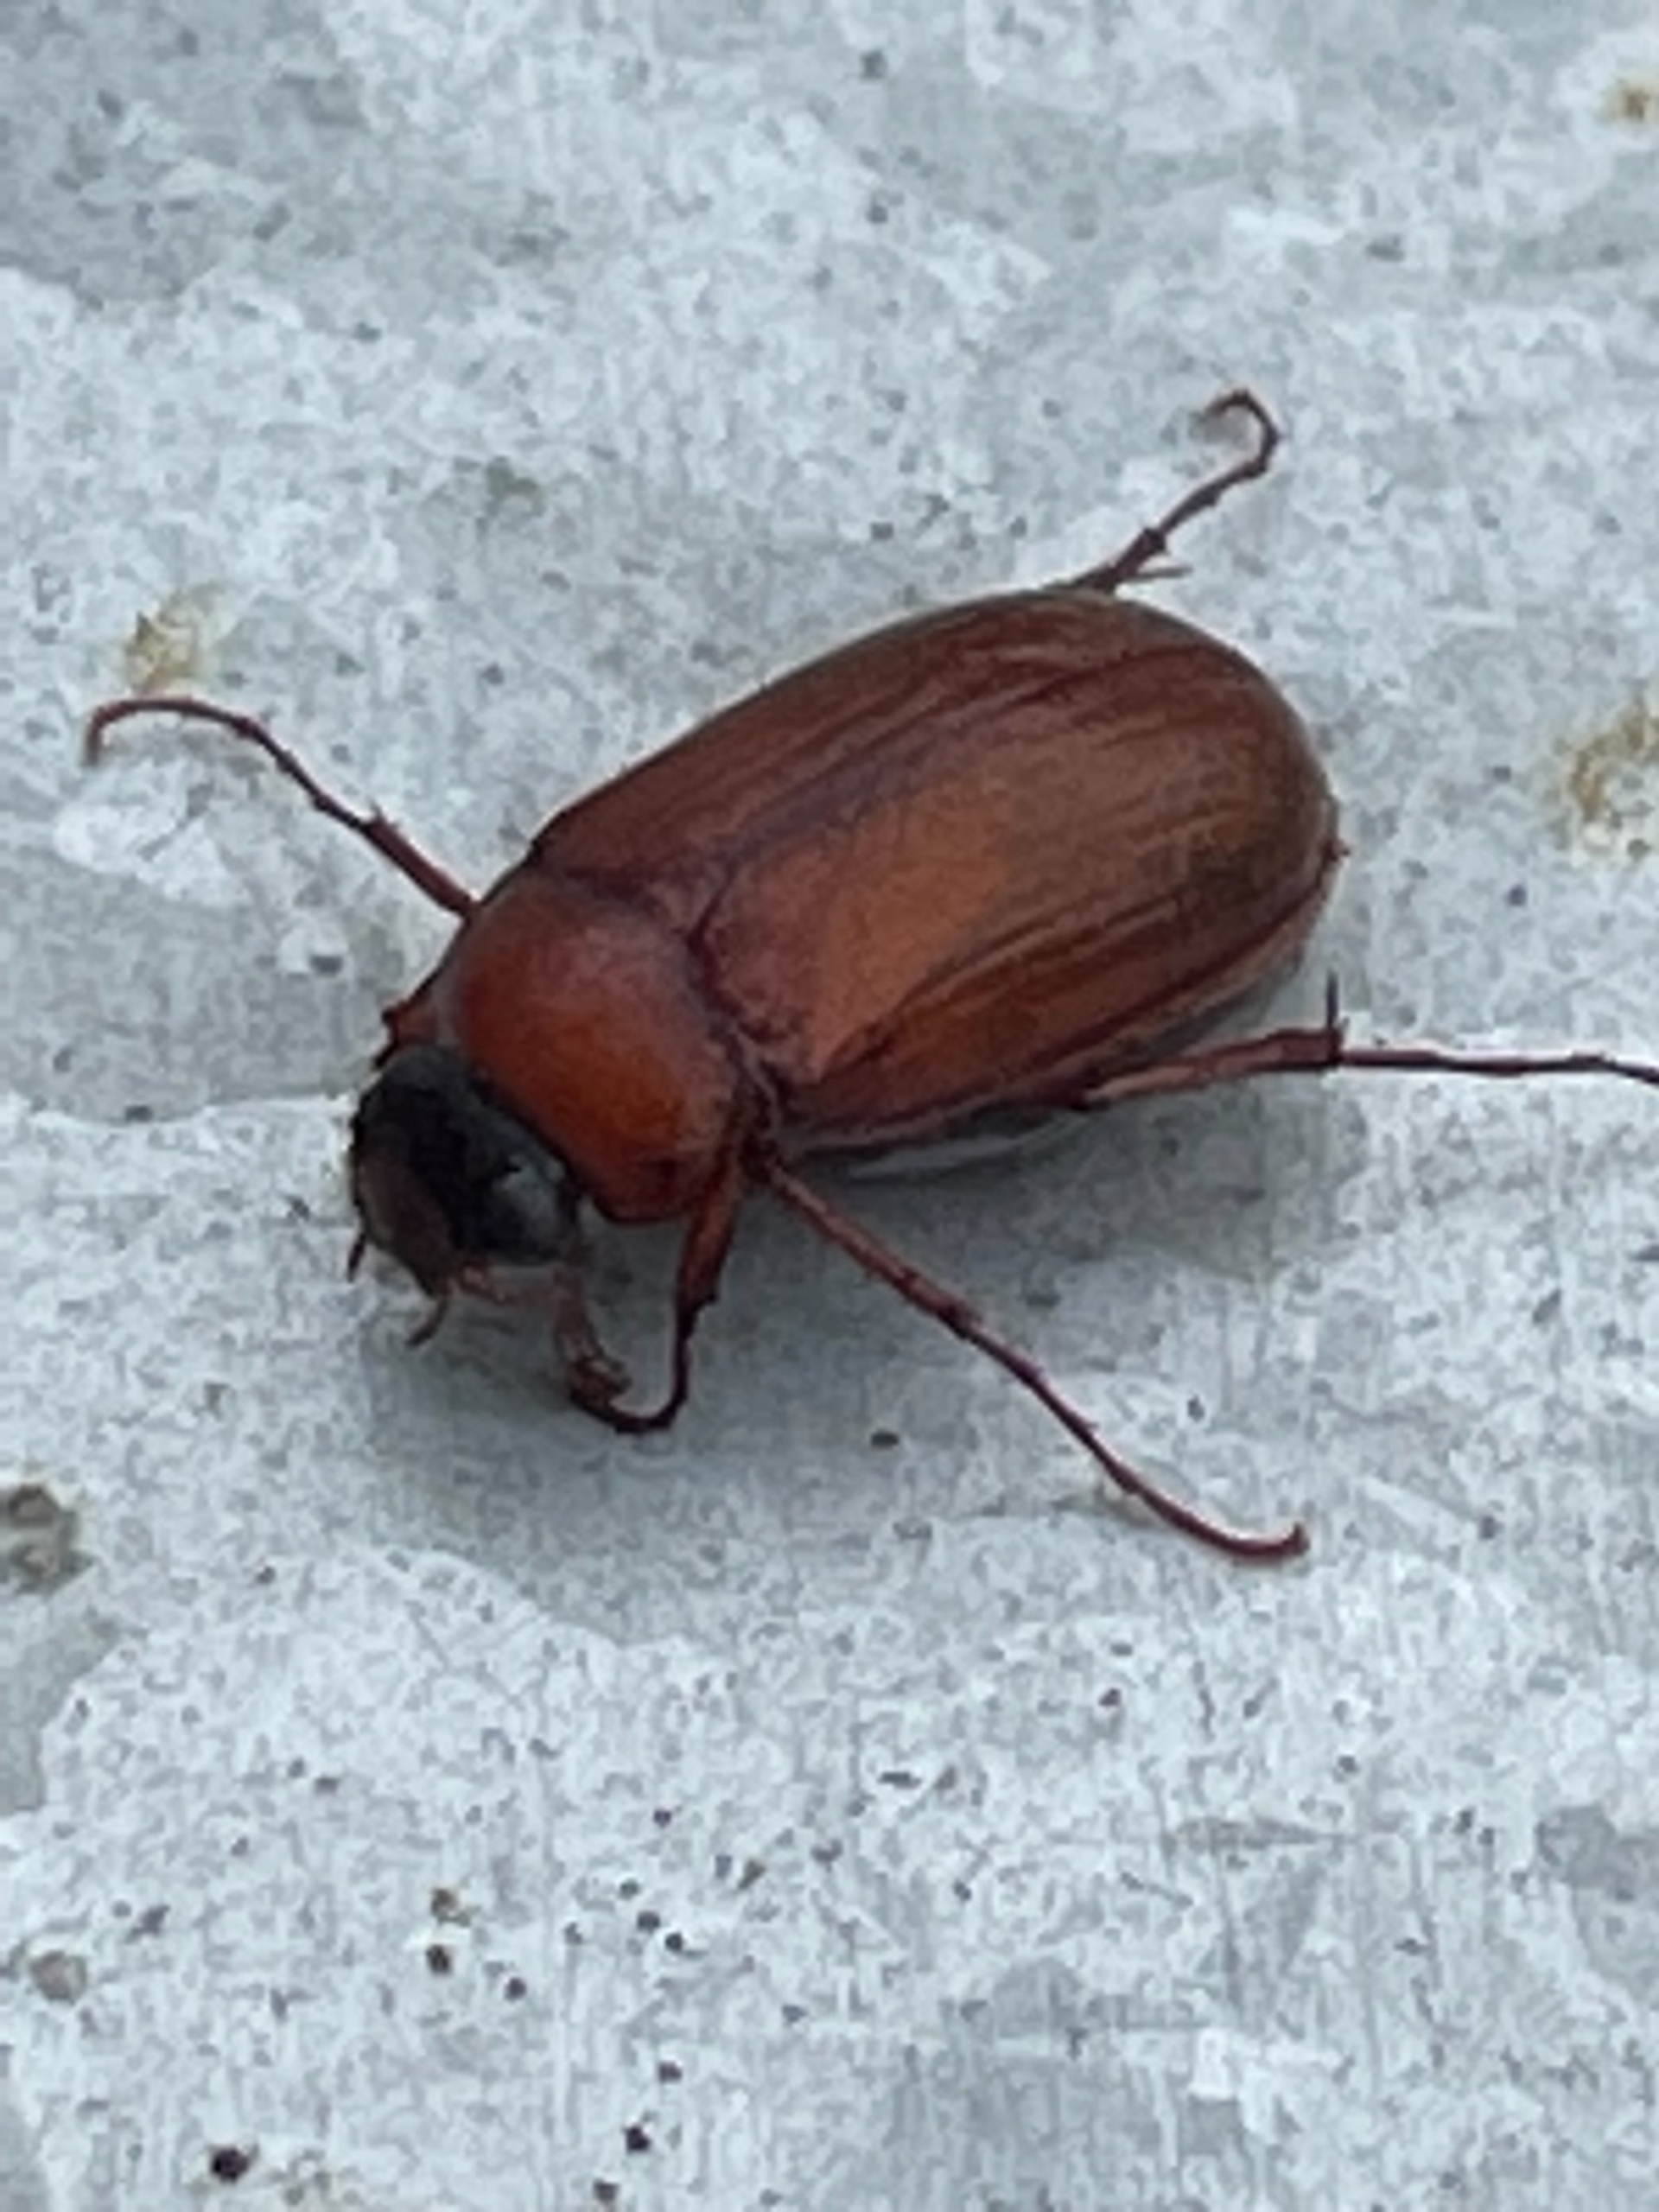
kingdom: Animalia
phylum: Arthropoda
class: Insecta
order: Coleoptera
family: Scarabaeidae
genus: Serica
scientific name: Serica brunnea
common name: Natoldenborre
